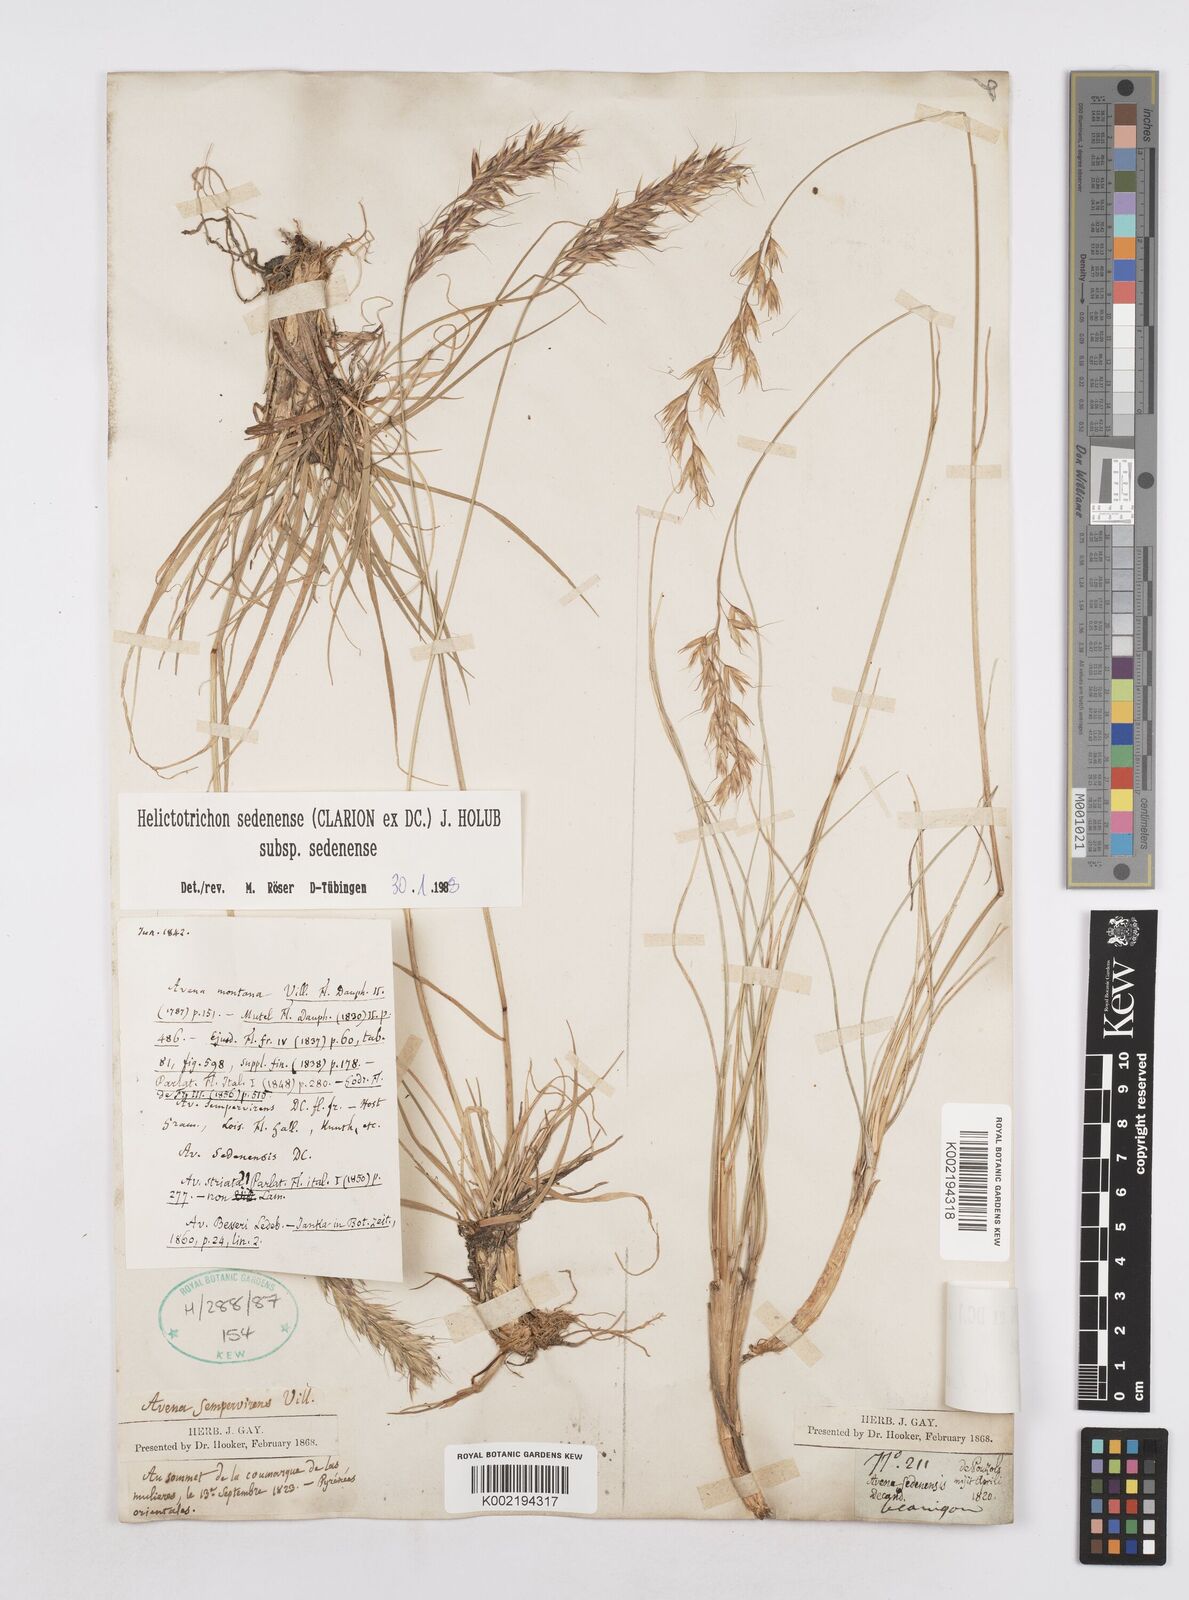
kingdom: Plantae
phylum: Tracheophyta
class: Liliopsida
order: Poales
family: Poaceae
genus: Helictotrichon
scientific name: Helictotrichon sedenense
